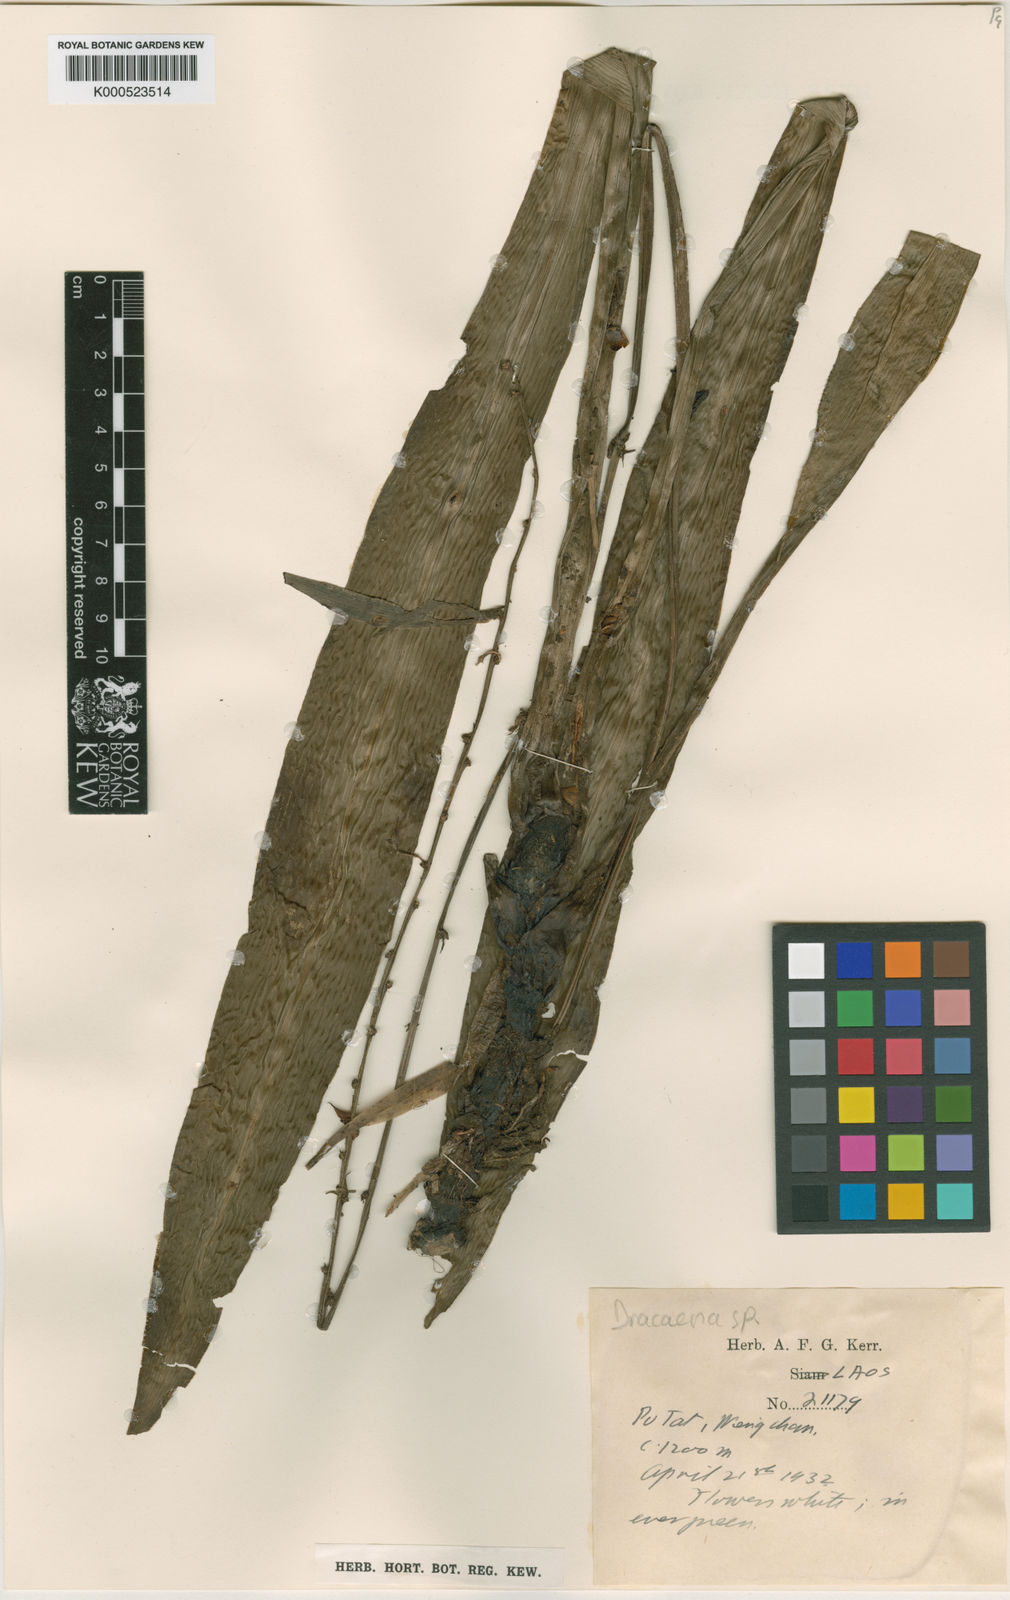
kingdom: Plantae
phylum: Tracheophyta
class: Liliopsida
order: Asparagales
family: Asparagaceae
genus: Dracaena
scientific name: Dracaena
